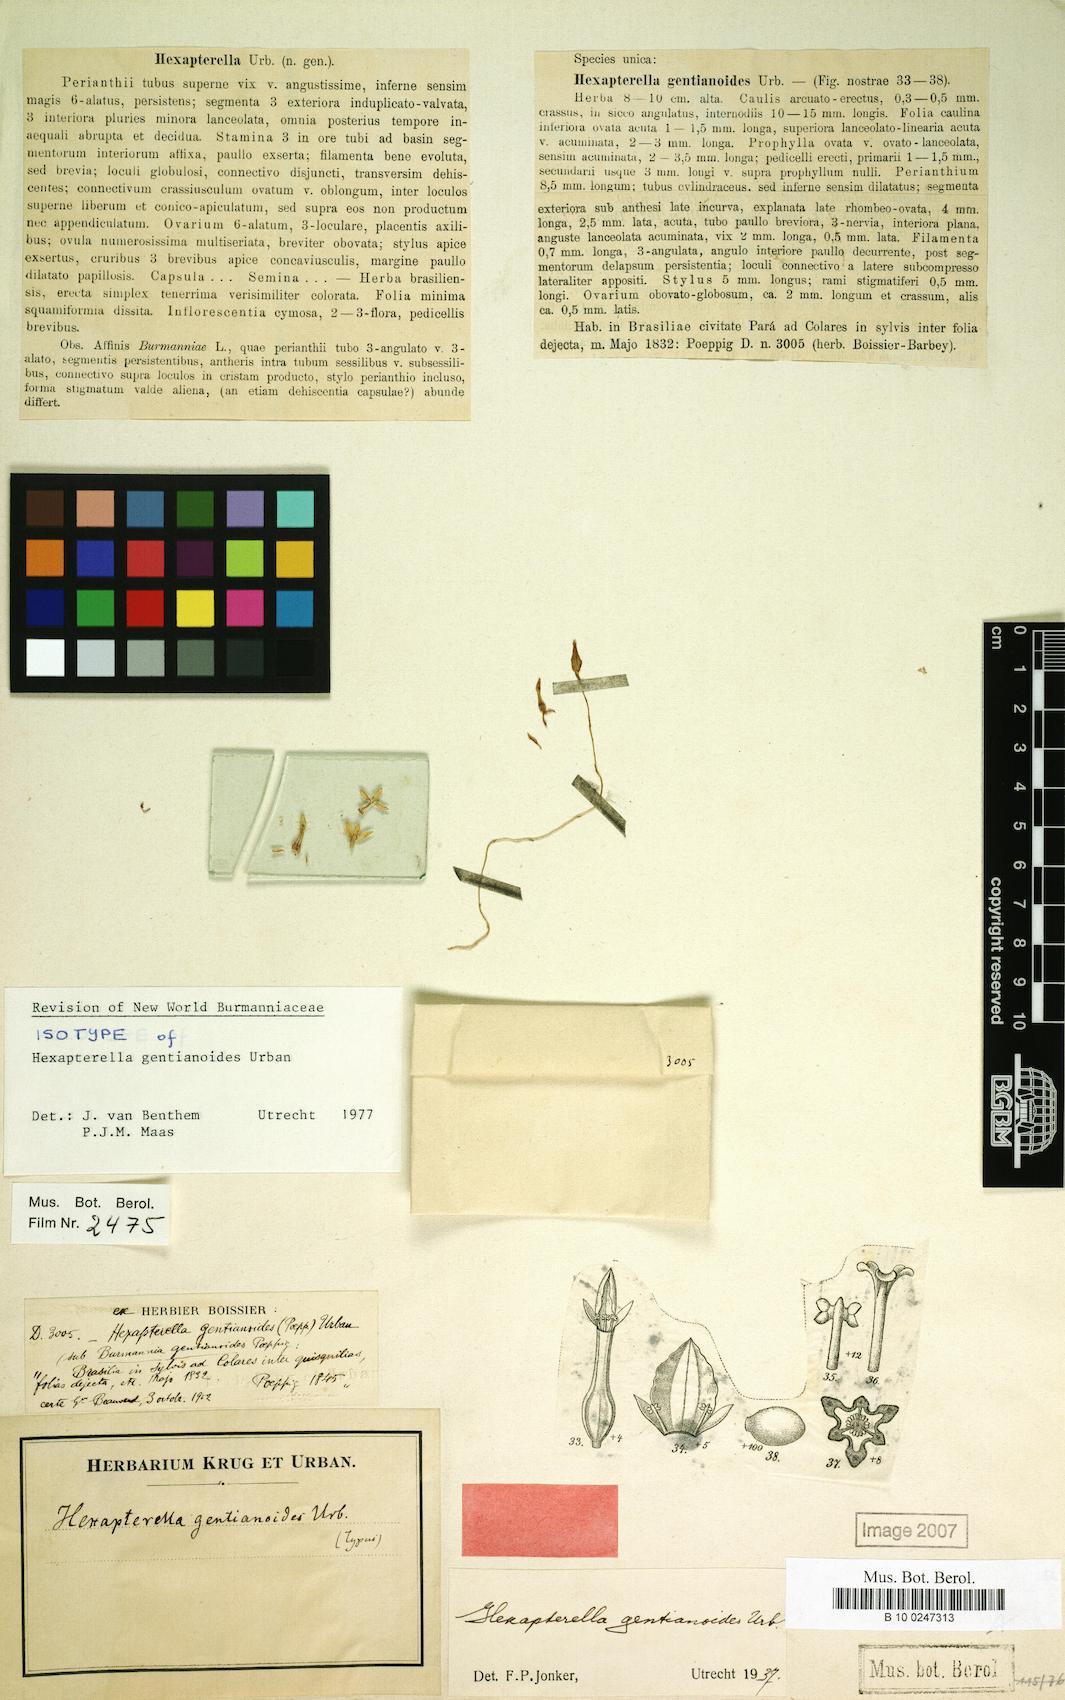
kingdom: Plantae
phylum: Tracheophyta
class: Liliopsida
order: Dioscoreales
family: Burmanniaceae
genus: Hexapterella
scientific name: Hexapterella gentianoides
